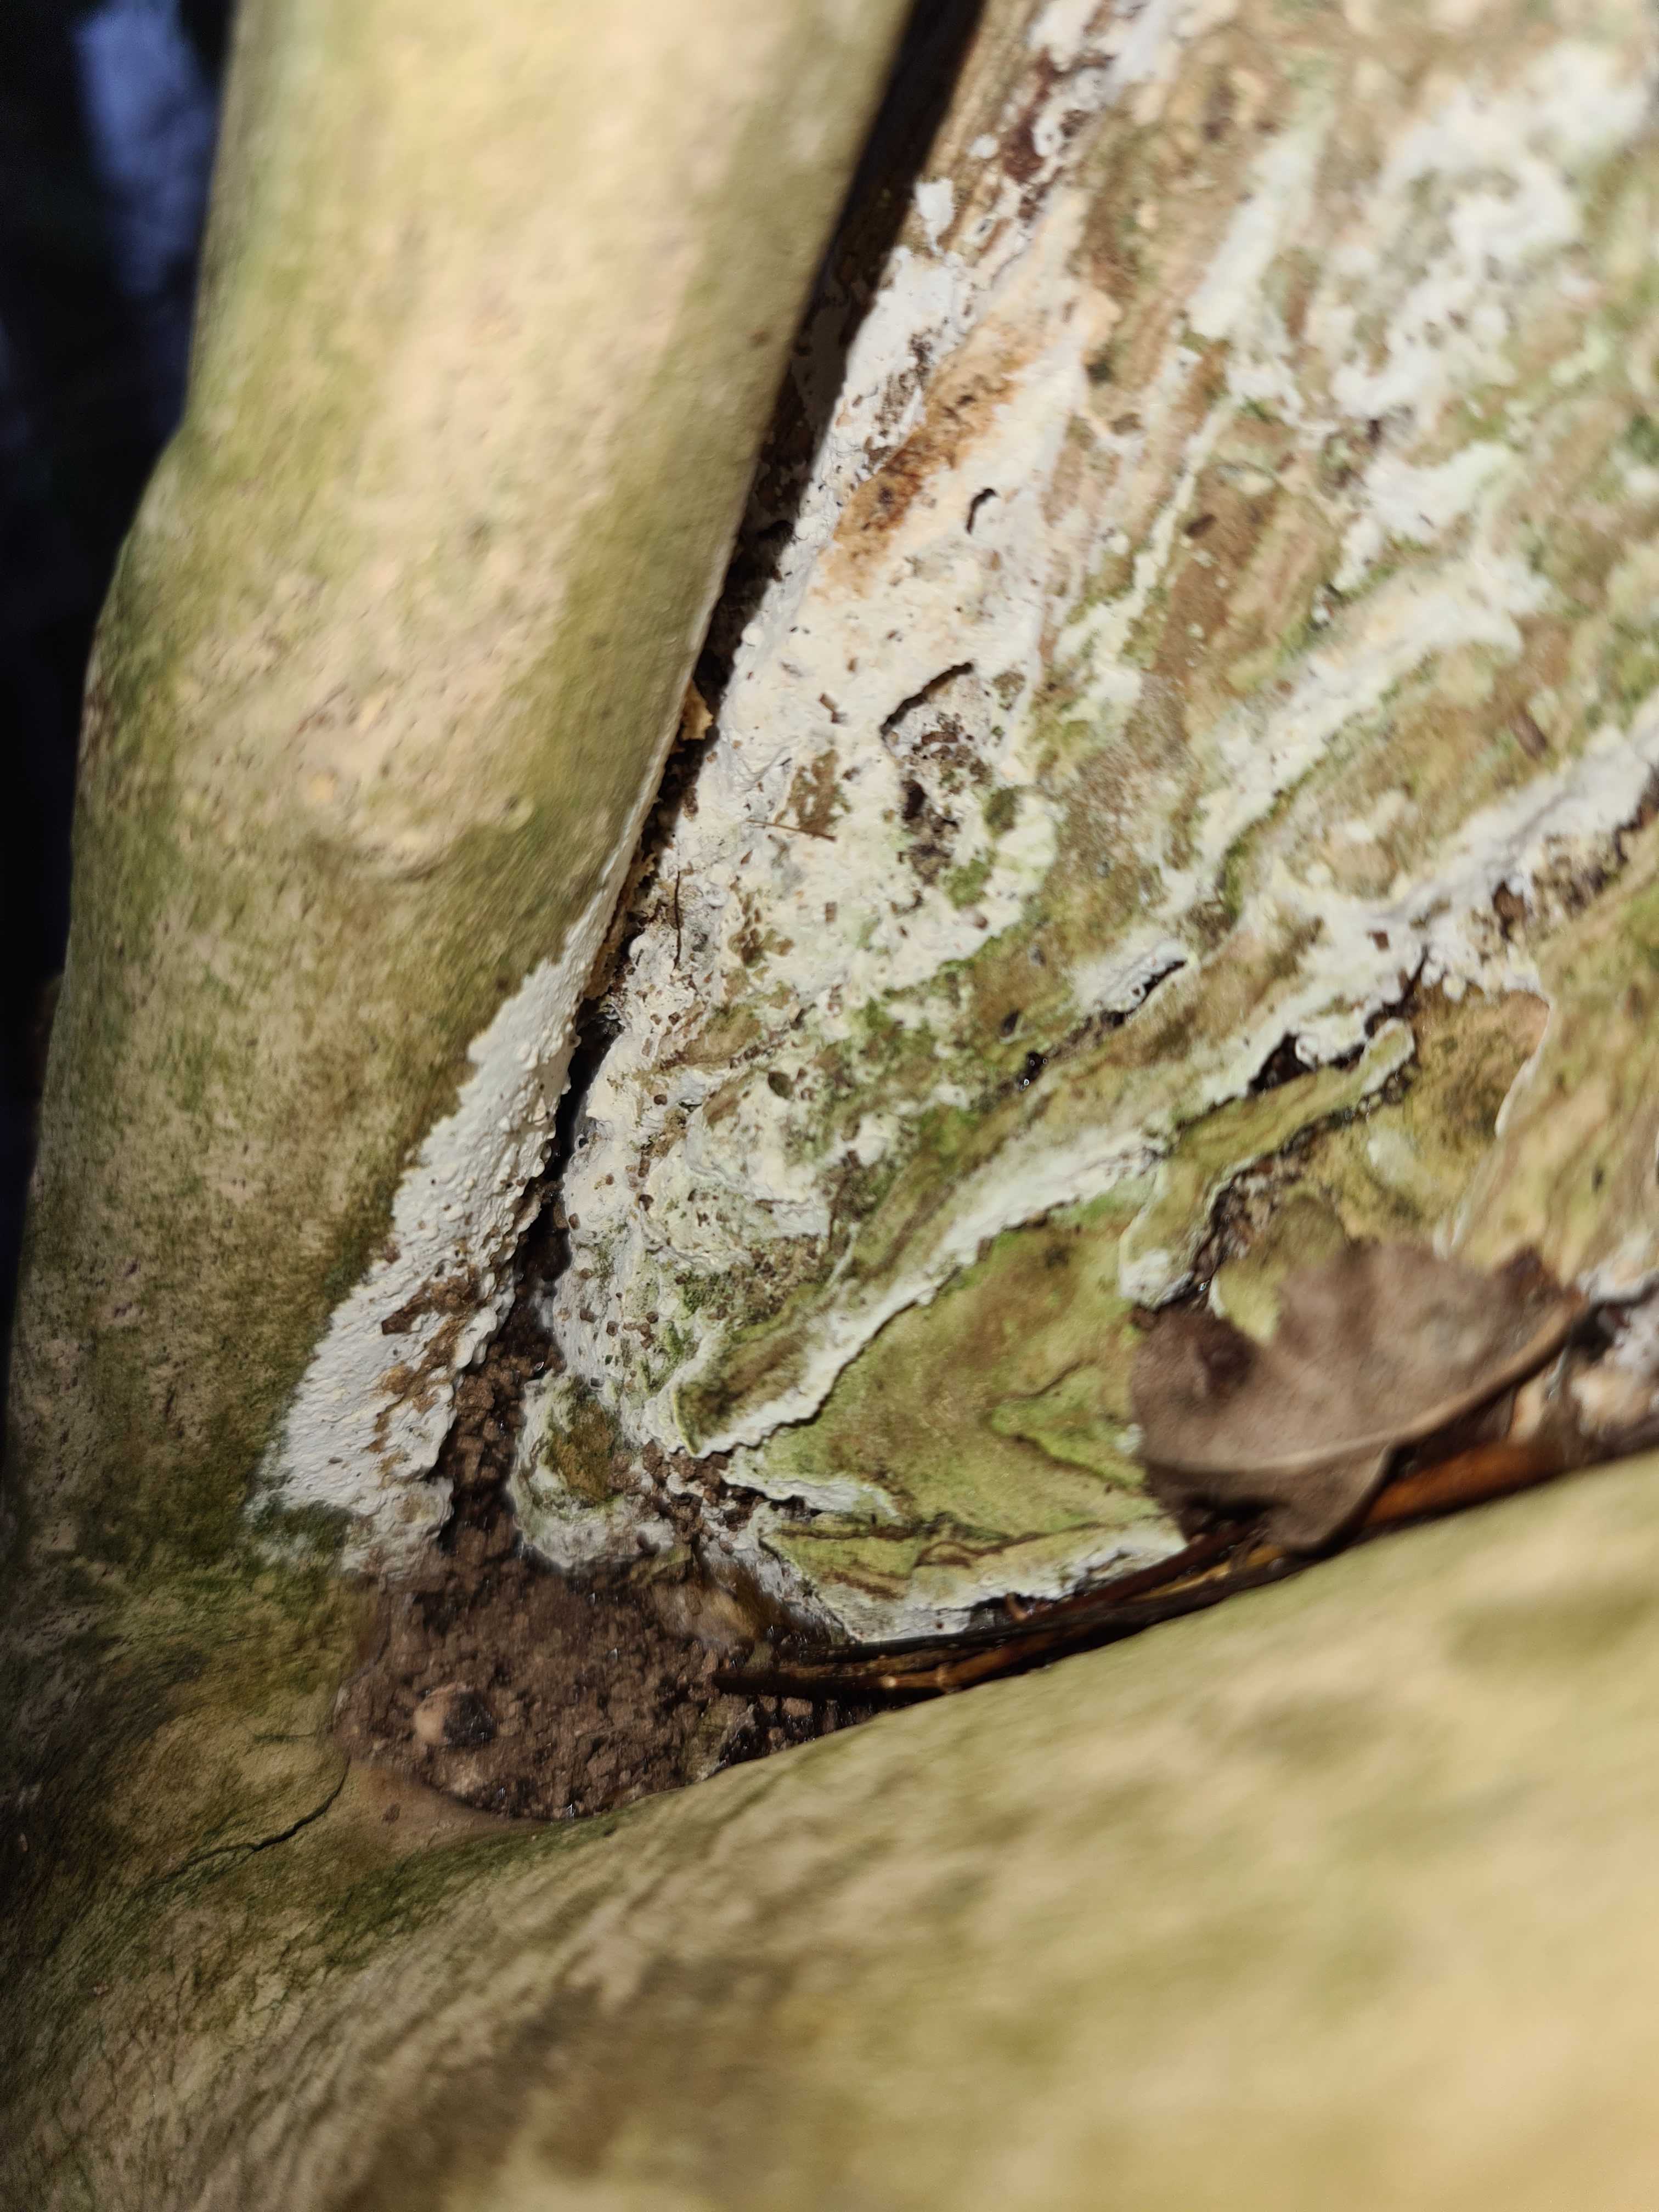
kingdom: Fungi
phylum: Basidiomycota
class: Agaricomycetes
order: Corticiales
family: Corticiaceae
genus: Lyomyces
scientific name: Lyomyces sambuci
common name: almindelig hyldehinde
